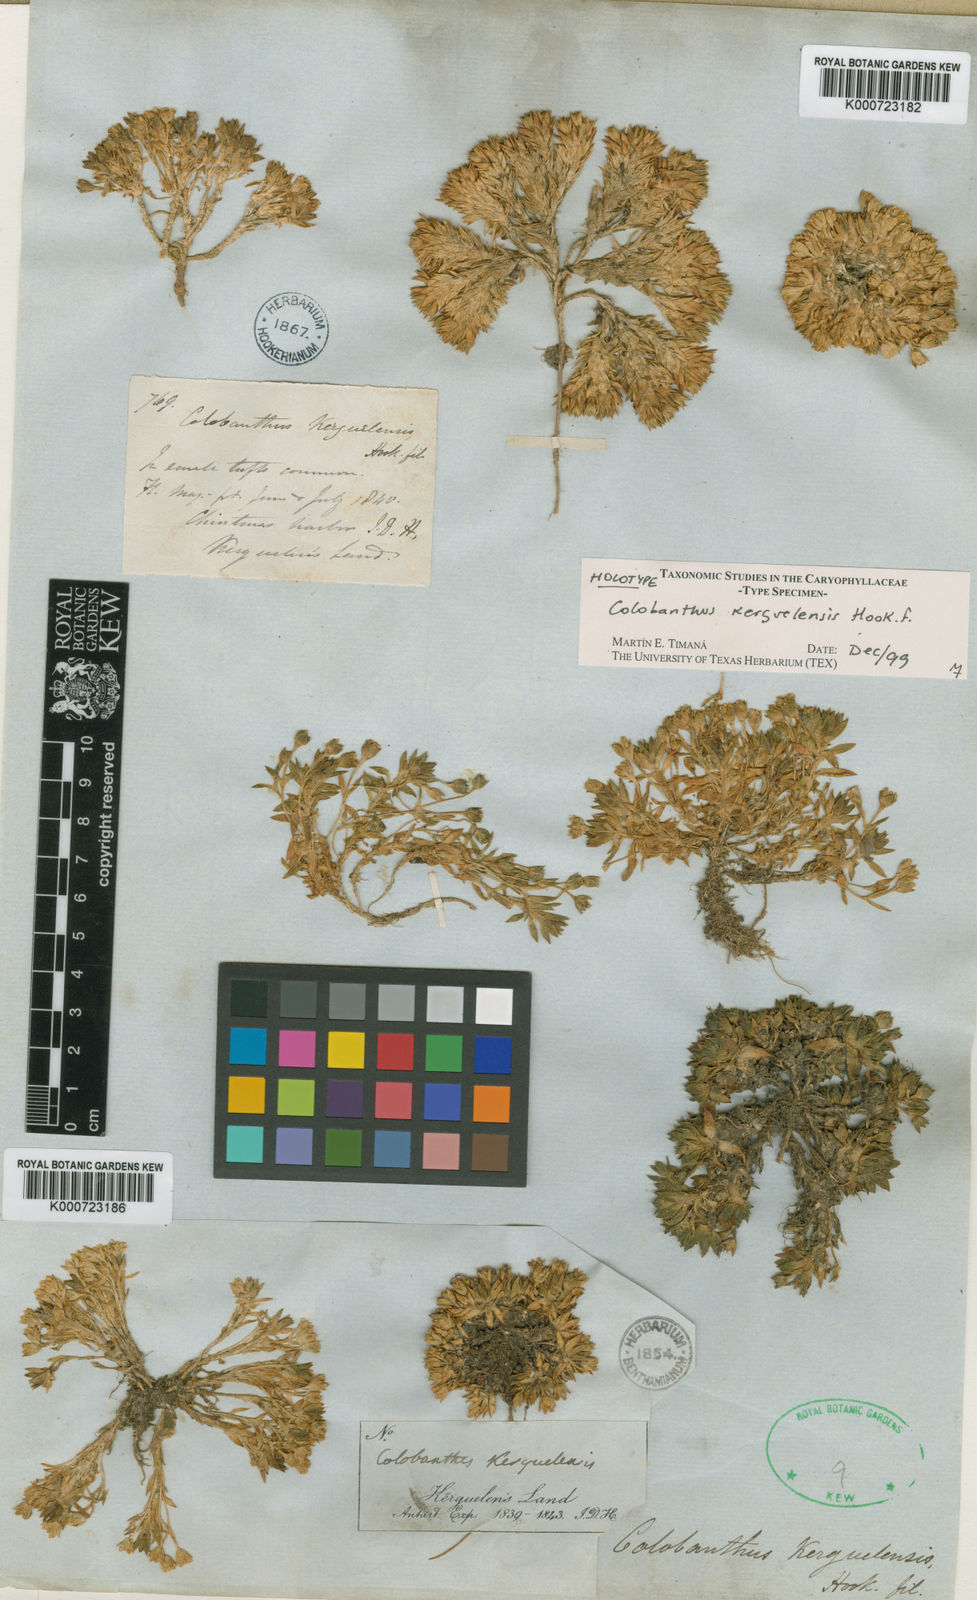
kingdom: Plantae
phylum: Tracheophyta
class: Magnoliopsida
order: Caryophyllales
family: Caryophyllaceae
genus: Colobanthus
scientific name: Colobanthus kerguelensis
